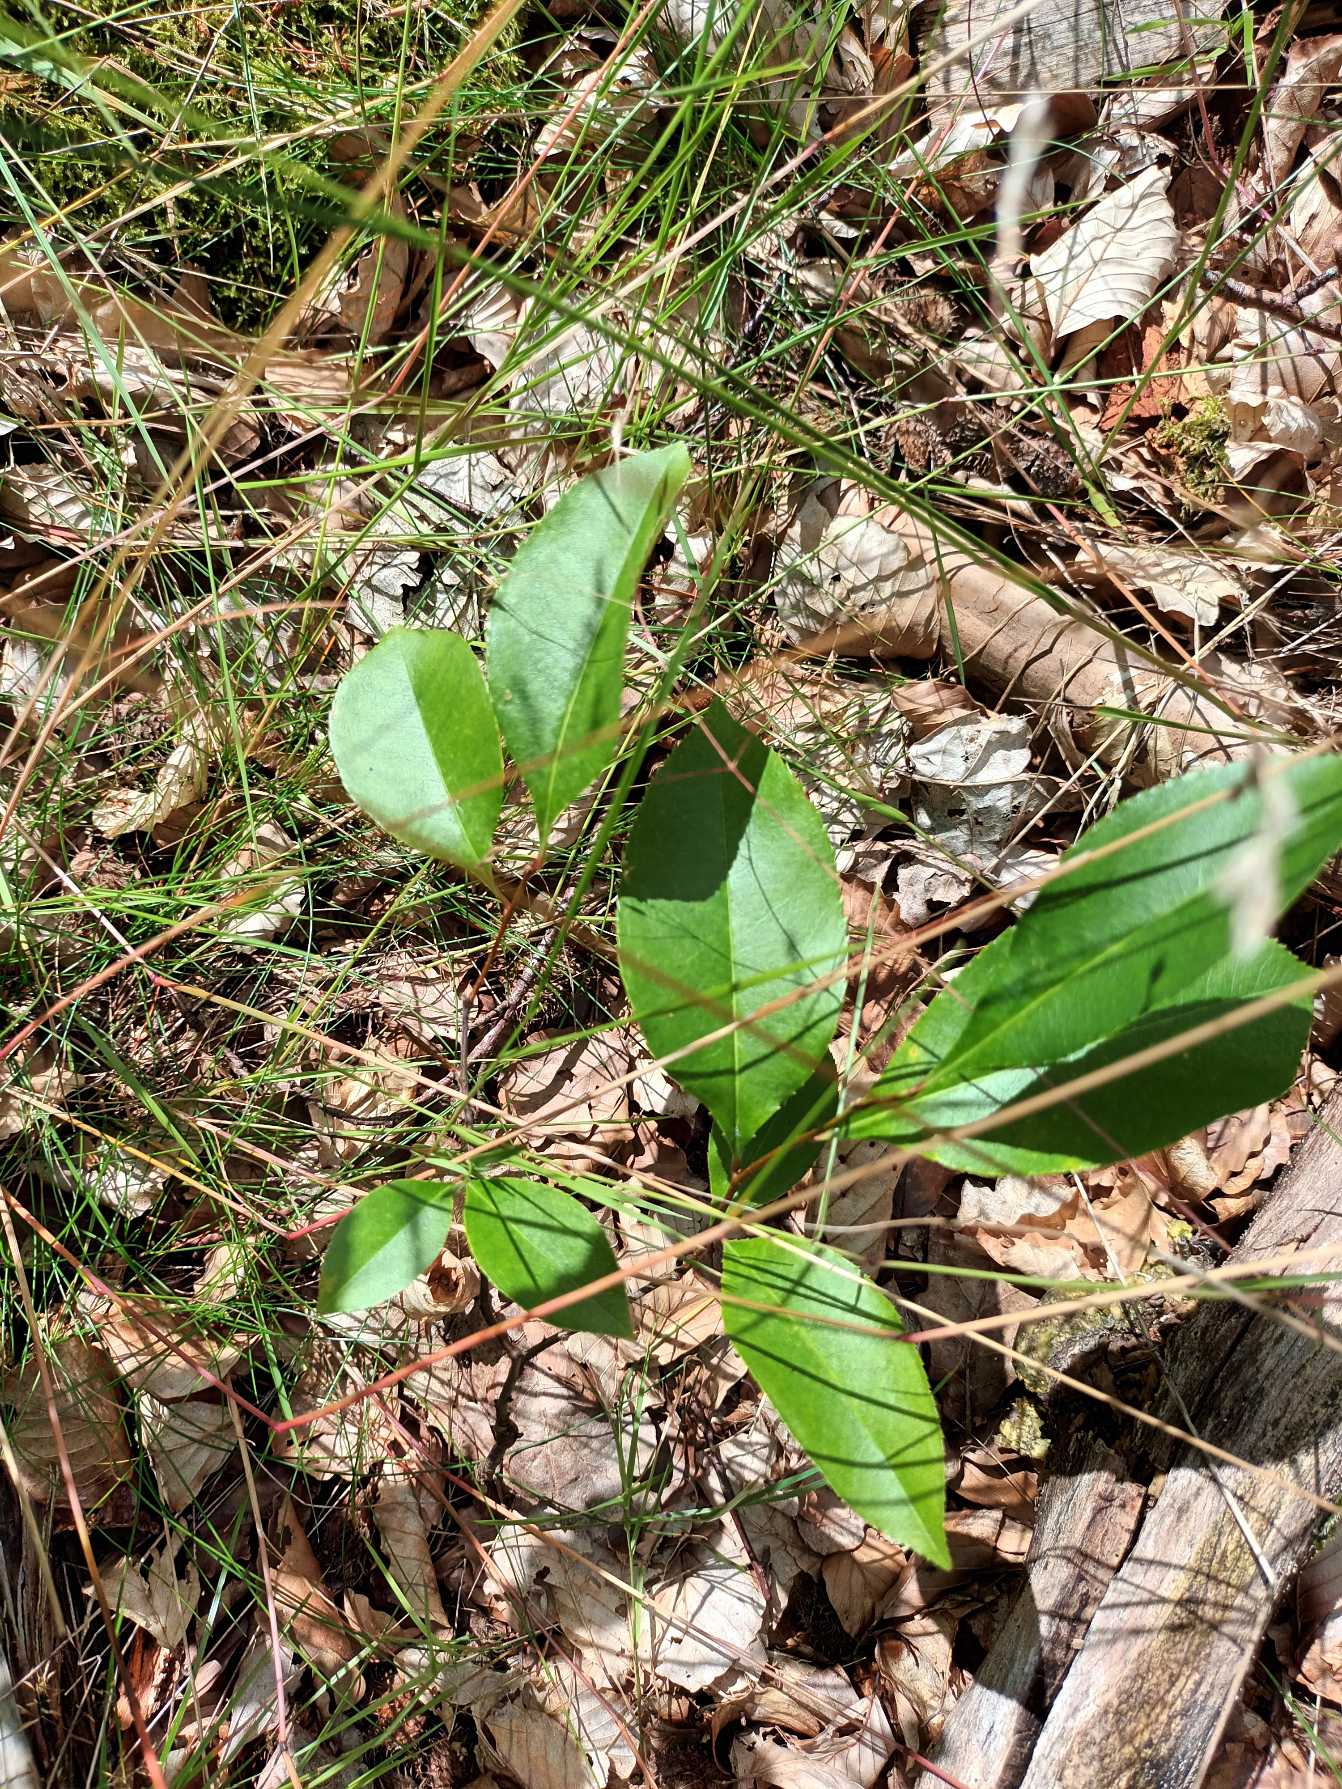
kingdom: Plantae
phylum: Tracheophyta
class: Magnoliopsida
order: Rosales
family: Rosaceae
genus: Prunus
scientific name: Prunus serotina
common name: Glansbladet hæg
